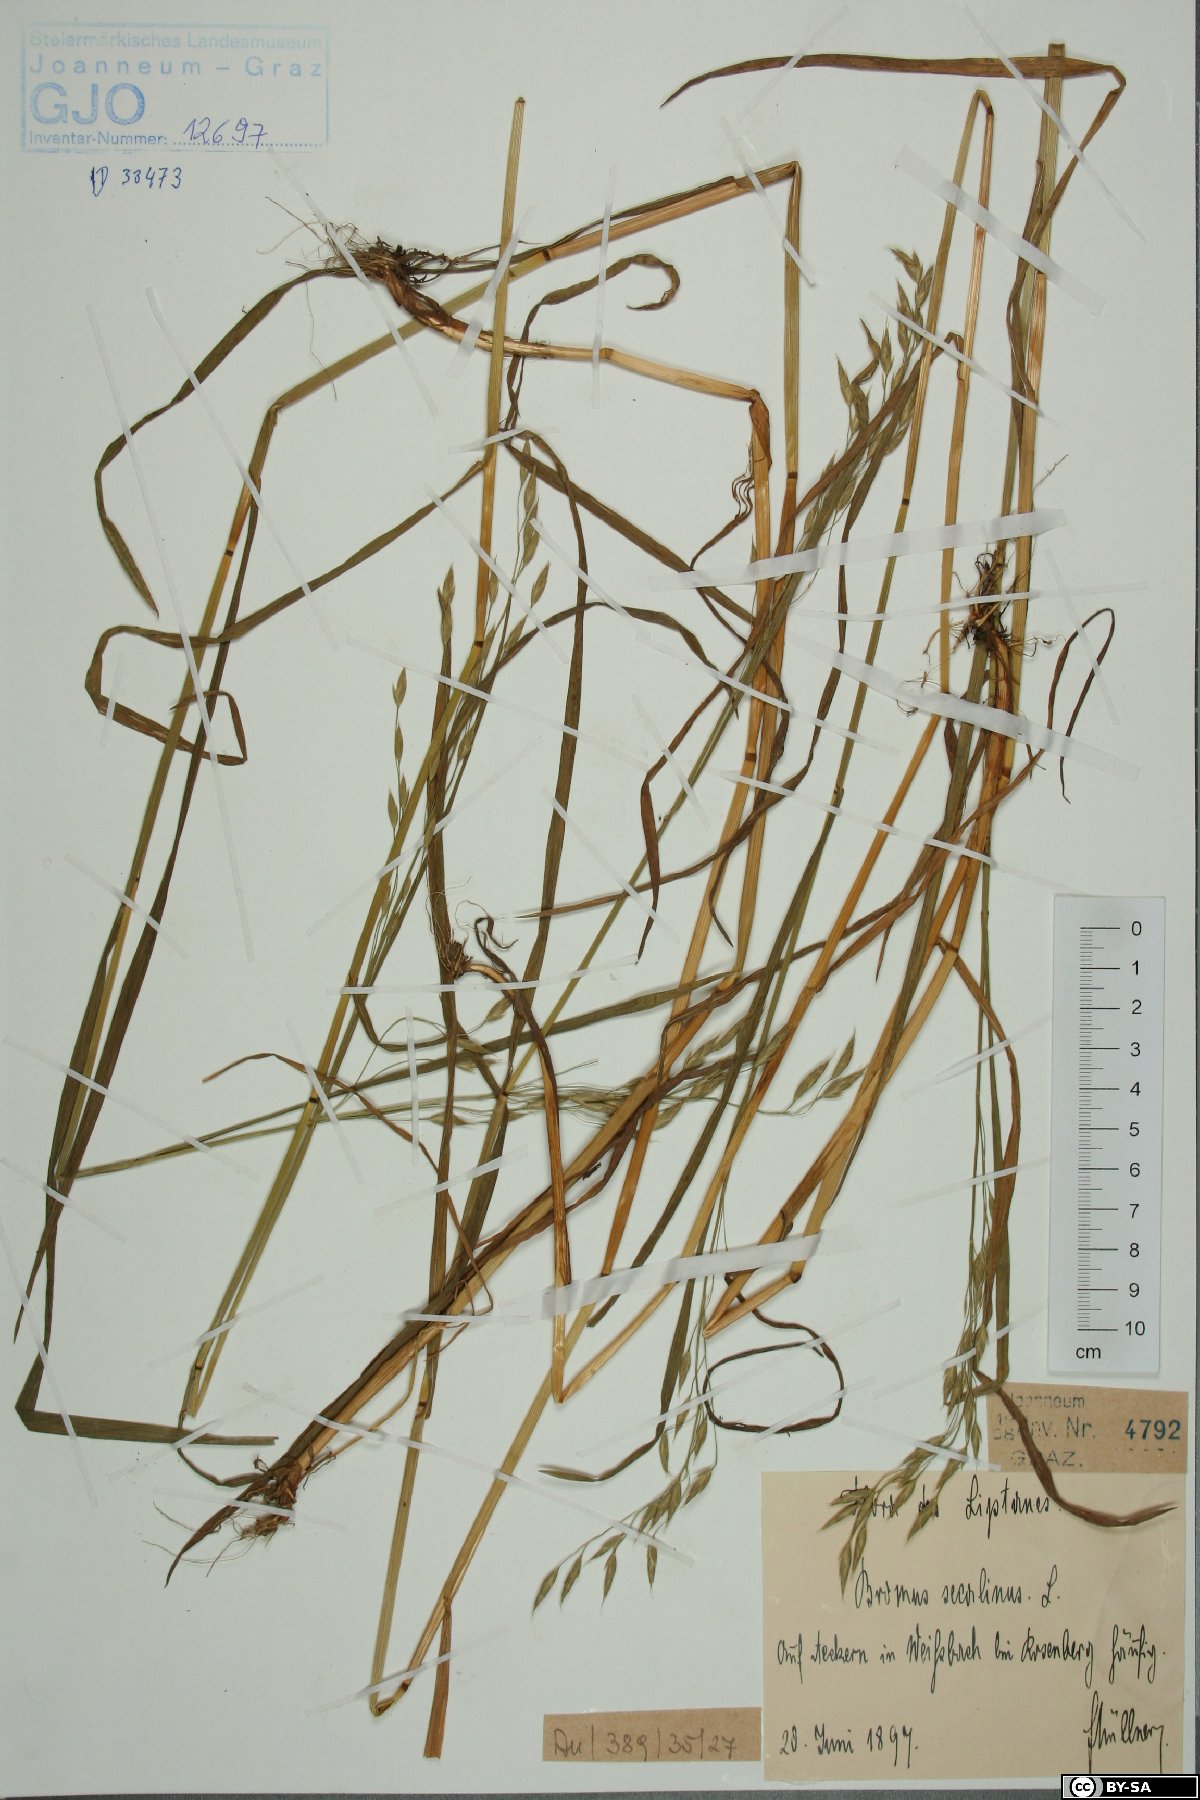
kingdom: Plantae
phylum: Tracheophyta
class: Liliopsida
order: Poales
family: Poaceae
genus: Bromus
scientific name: Bromus secalinus
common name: Rye brome
